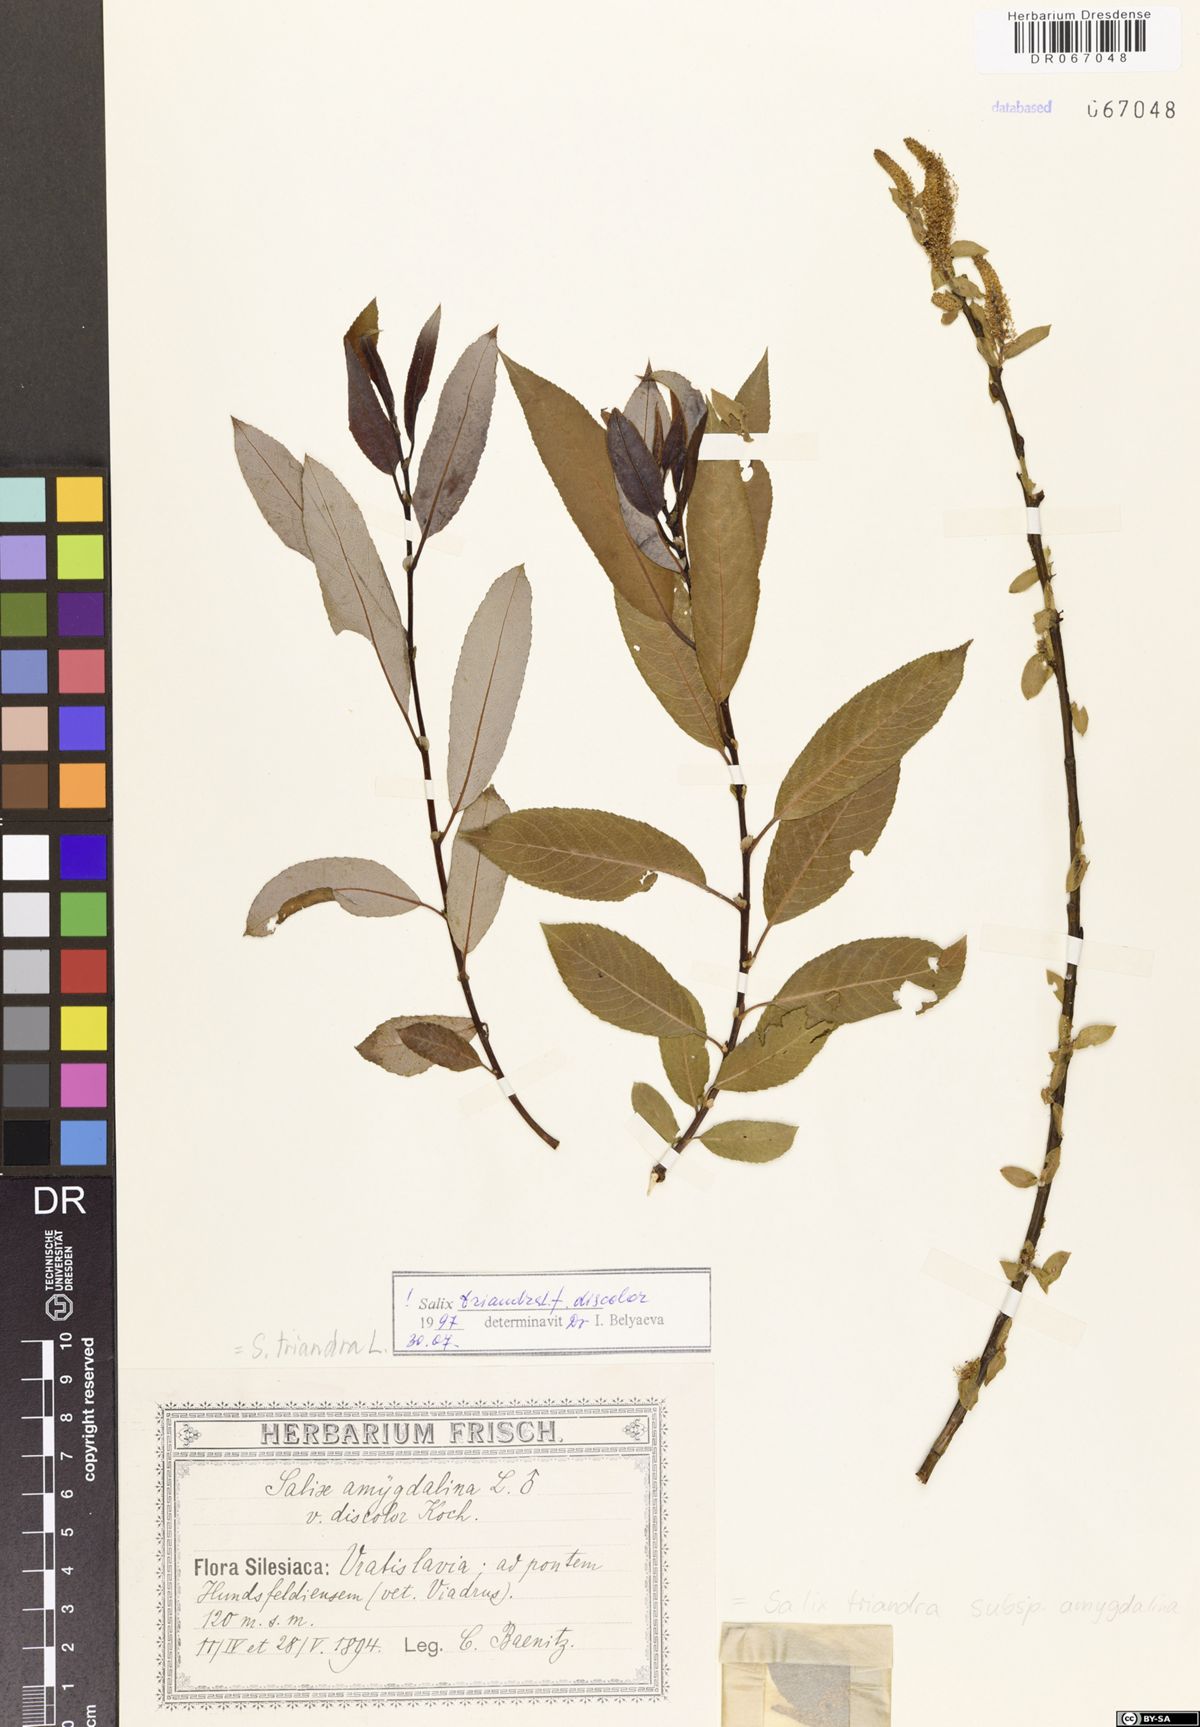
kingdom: Plantae
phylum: Tracheophyta
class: Magnoliopsida
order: Malpighiales
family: Salicaceae
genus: Salix
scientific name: Salix triandra
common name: Almond willow
